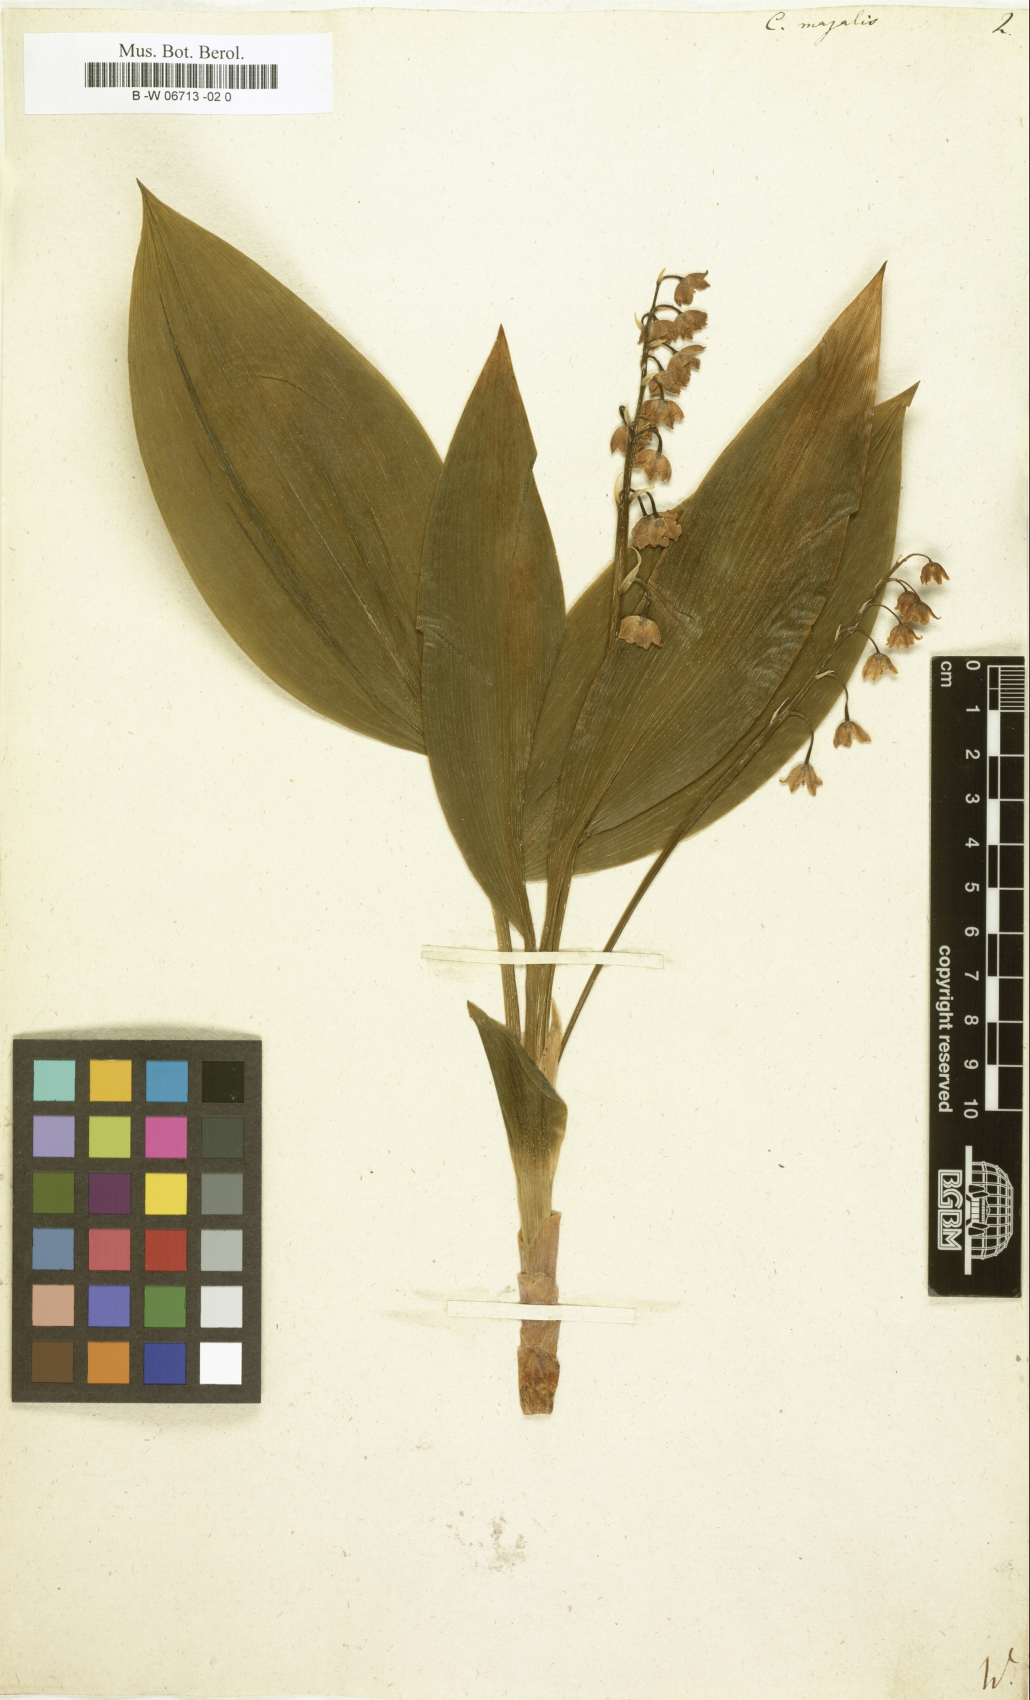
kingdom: Plantae
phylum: Tracheophyta
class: Liliopsida
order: Asparagales
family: Asparagaceae
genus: Convallaria
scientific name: Convallaria majalis
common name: Lily-of-the-valley
